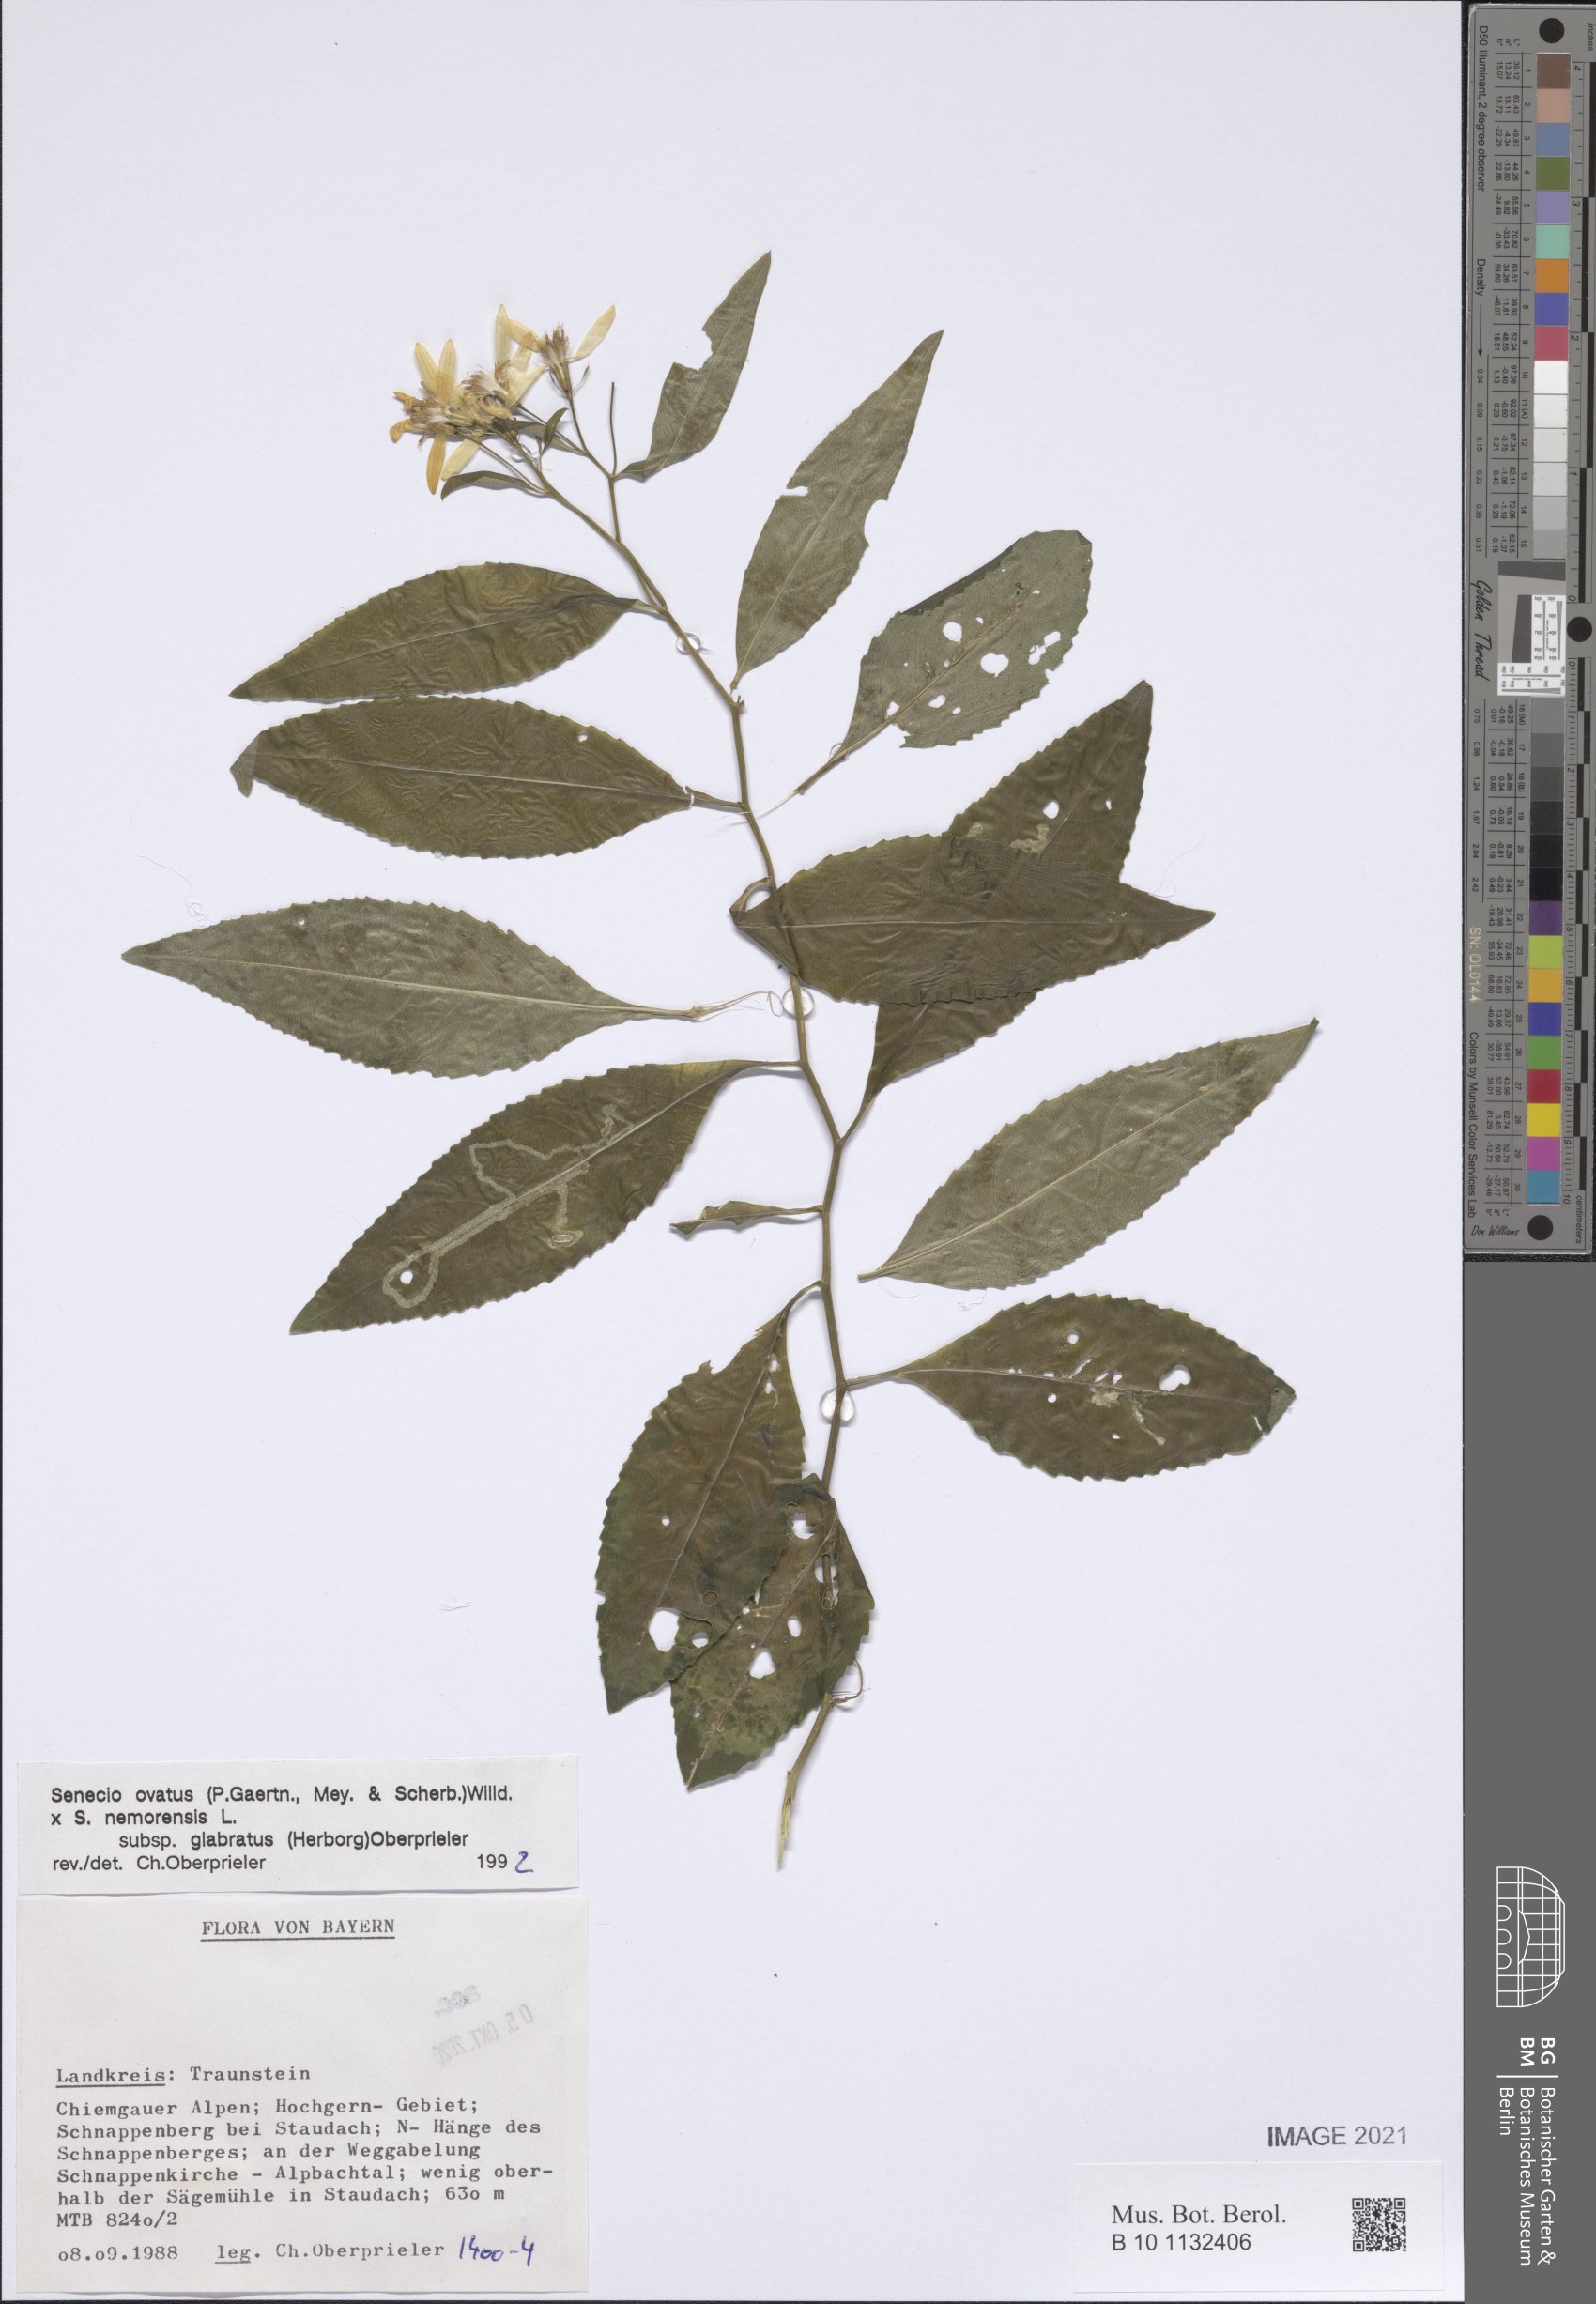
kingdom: Plantae
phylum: Tracheophyta
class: Magnoliopsida
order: Asterales
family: Asteraceae
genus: Senecio
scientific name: Senecio ovatus
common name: Wood ragwort
